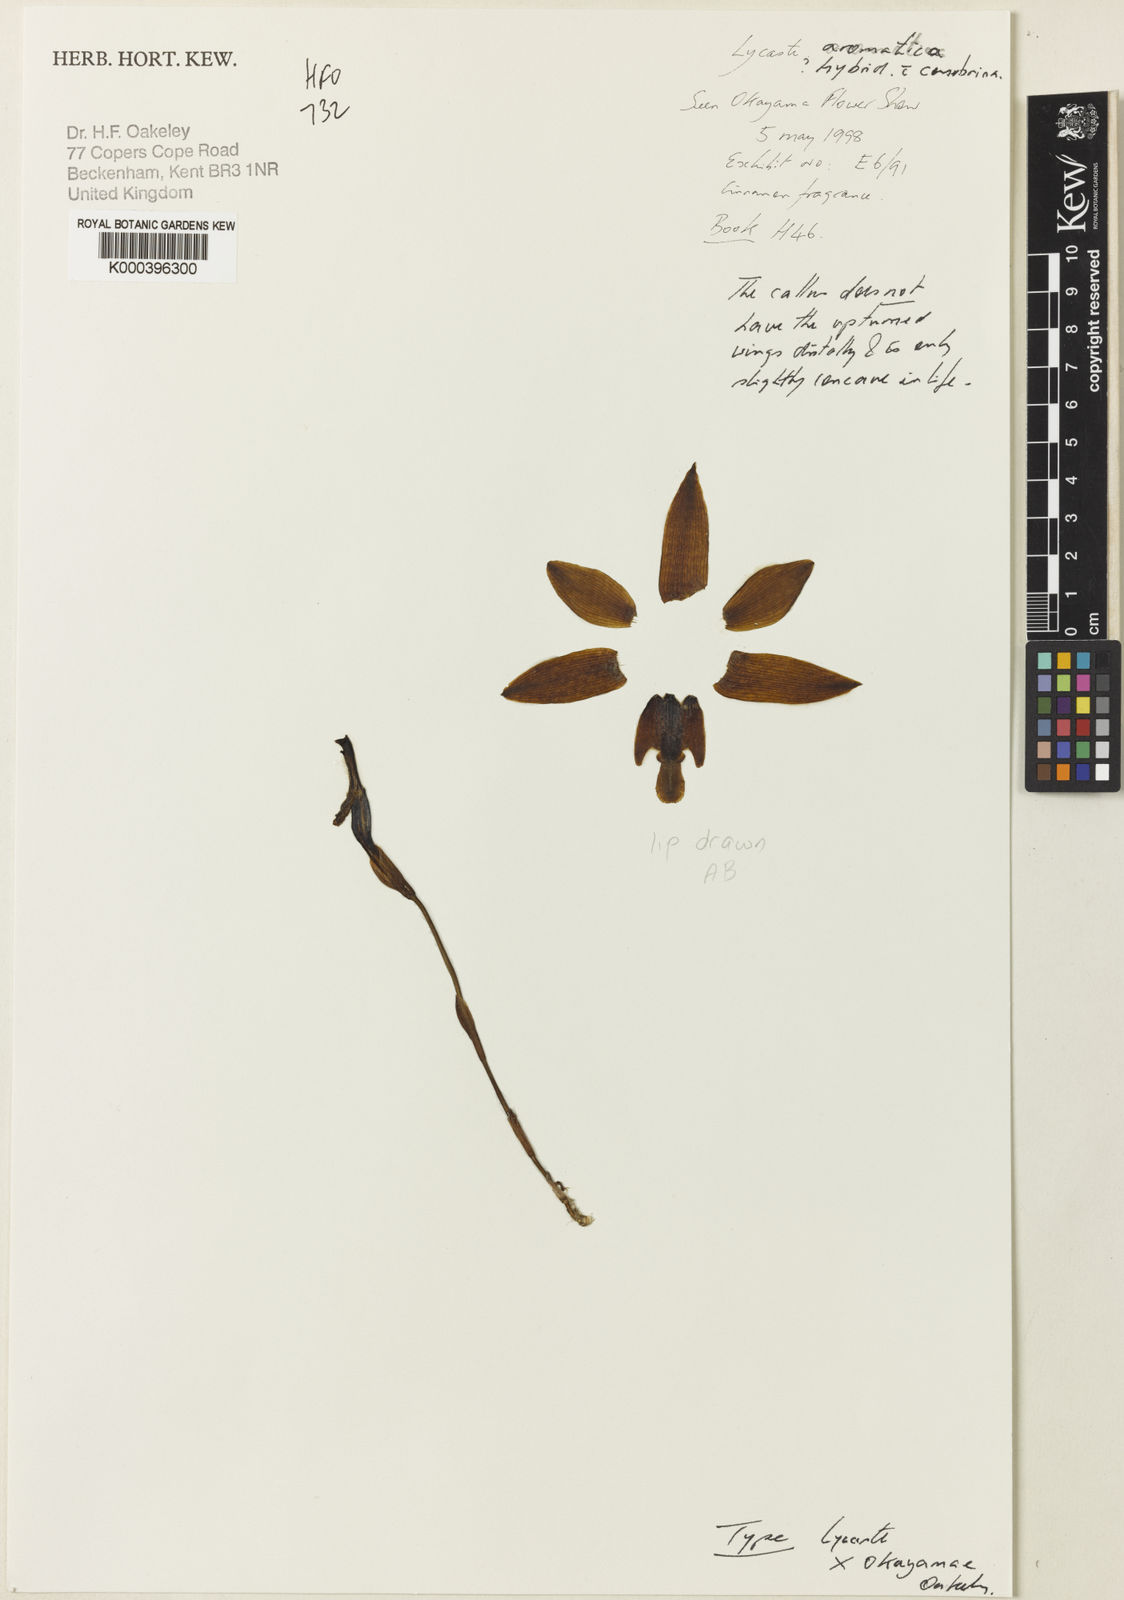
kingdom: Plantae
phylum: Tracheophyta
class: Liliopsida
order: Asparagales
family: Orchidaceae
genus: Lycaste
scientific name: Lycaste aromatica
